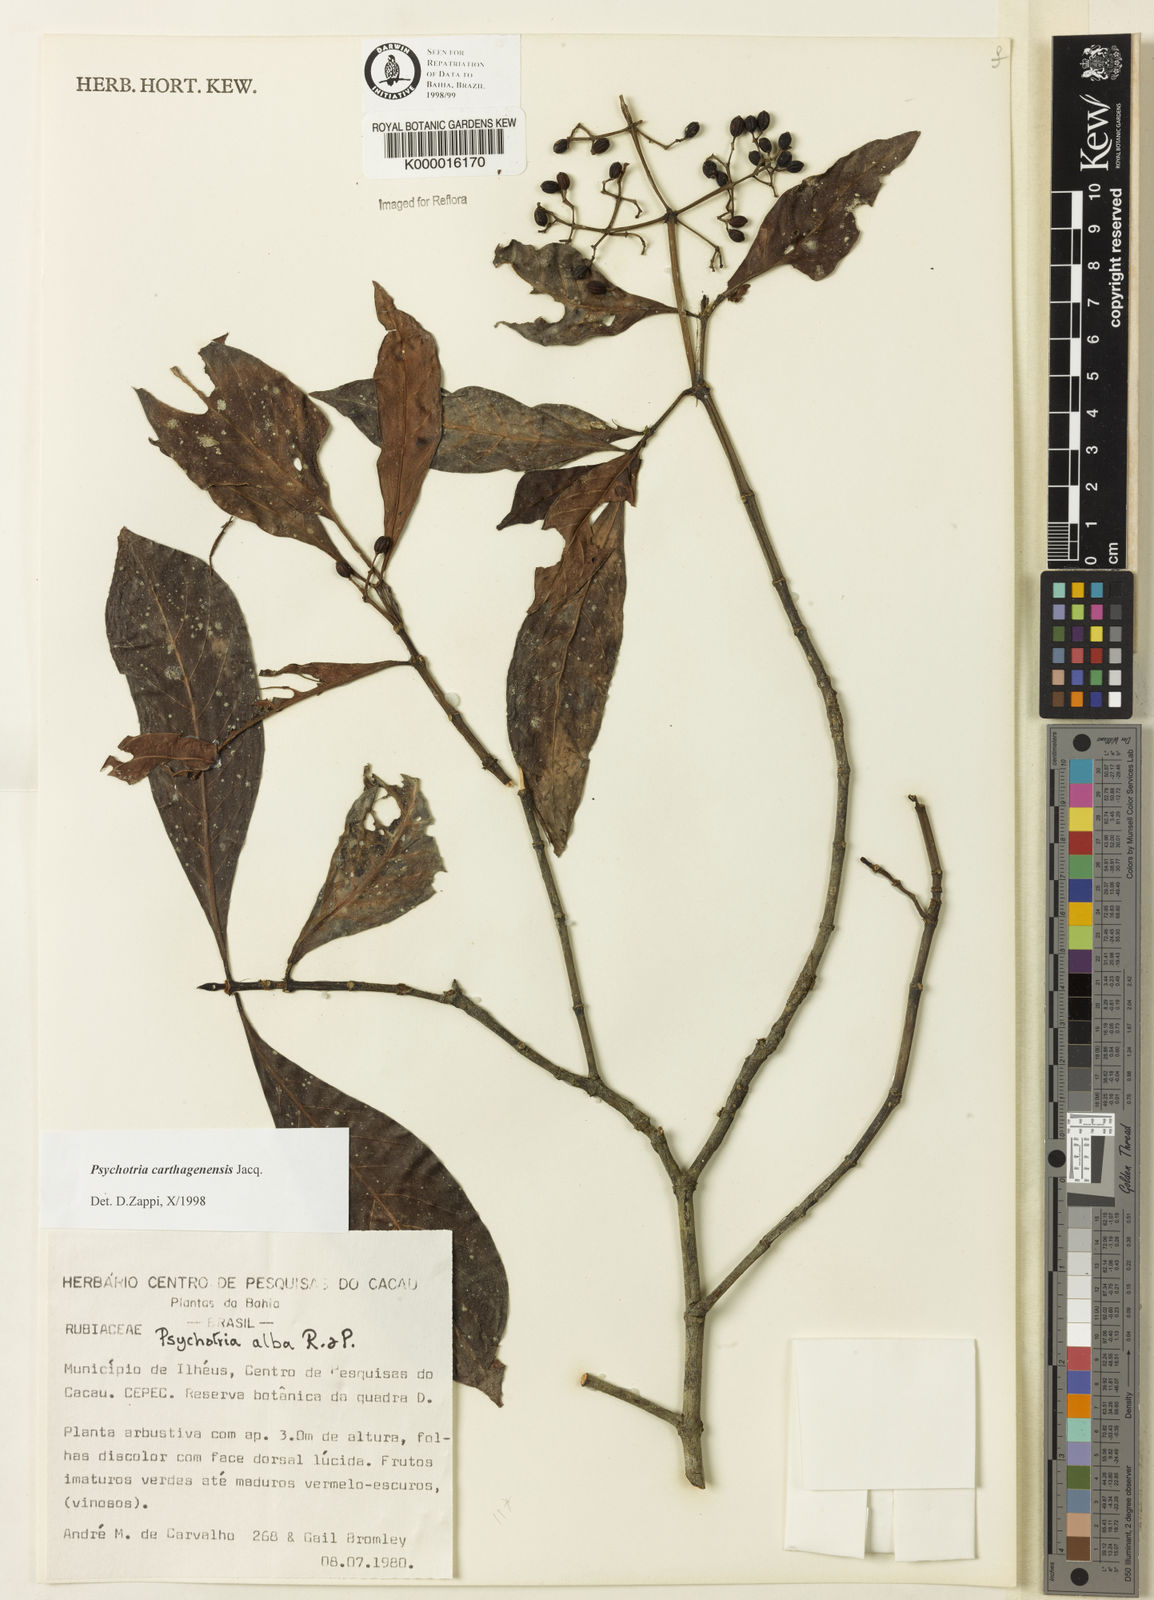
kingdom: Plantae
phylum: Tracheophyta
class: Magnoliopsida
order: Gentianales
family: Rubiaceae
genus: Psychotria
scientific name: Psychotria carthagenensis
